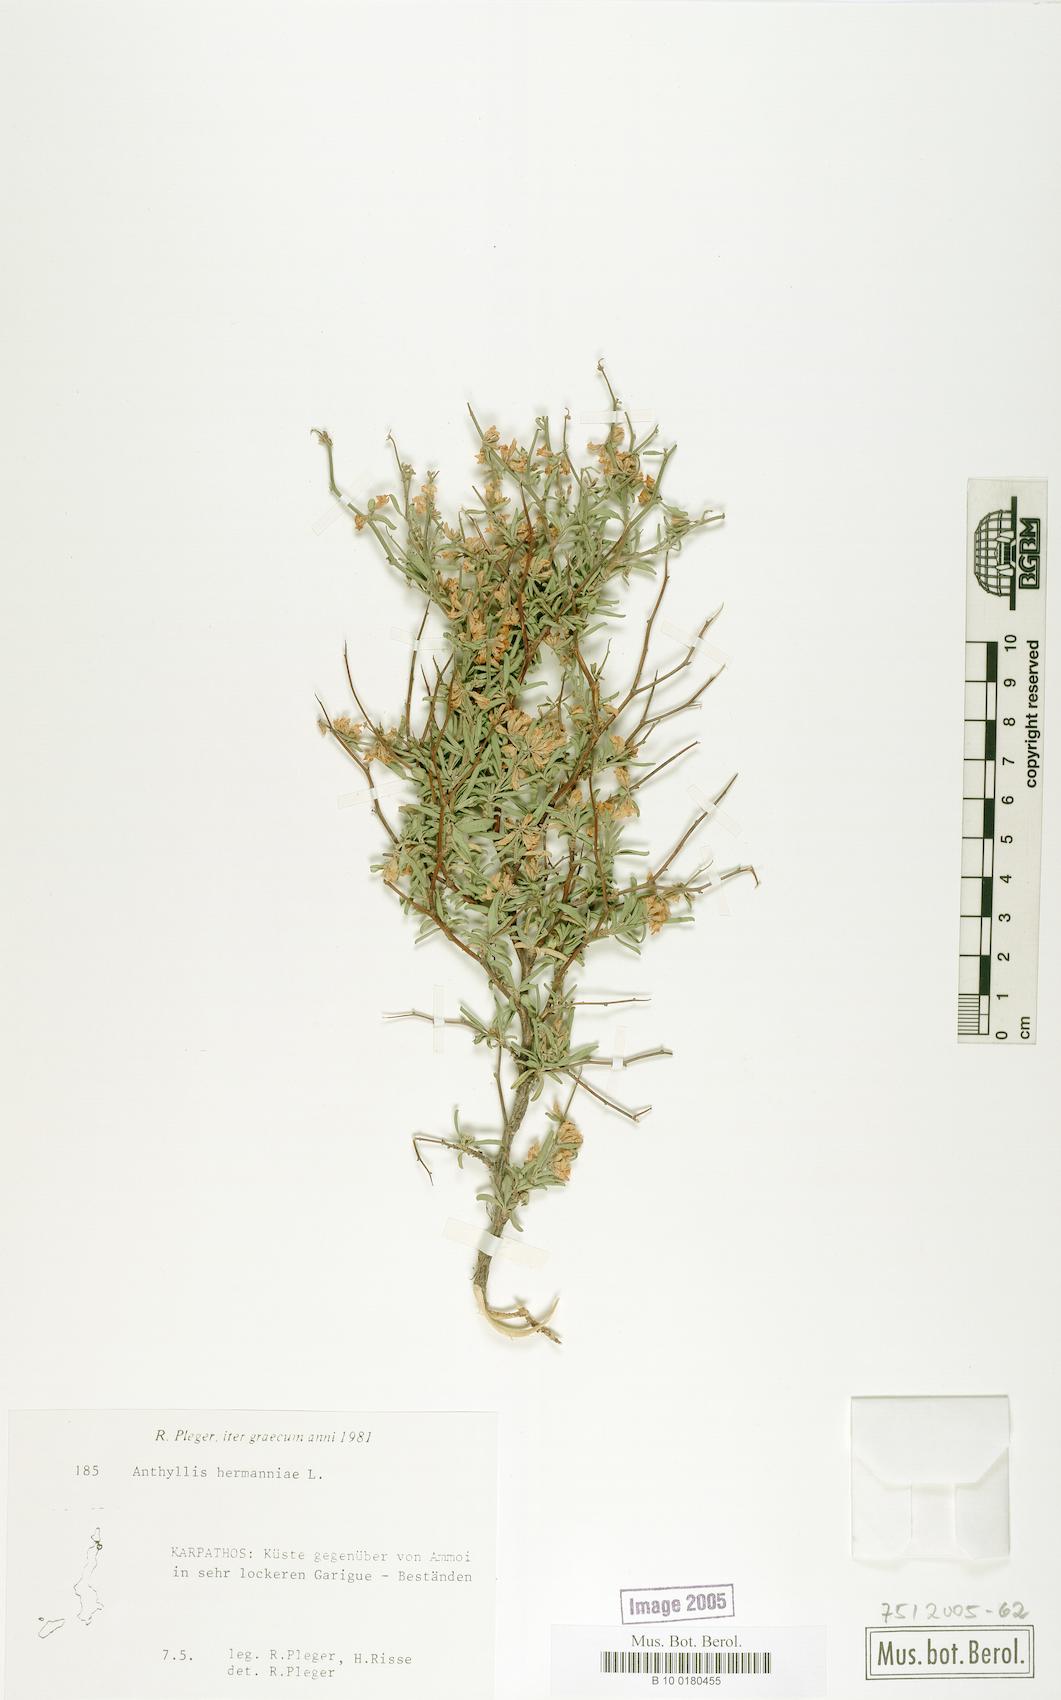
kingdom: Plantae
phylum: Tracheophyta
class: Magnoliopsida
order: Fabales
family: Fabaceae
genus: Anthyllis
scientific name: Anthyllis hermanniae
